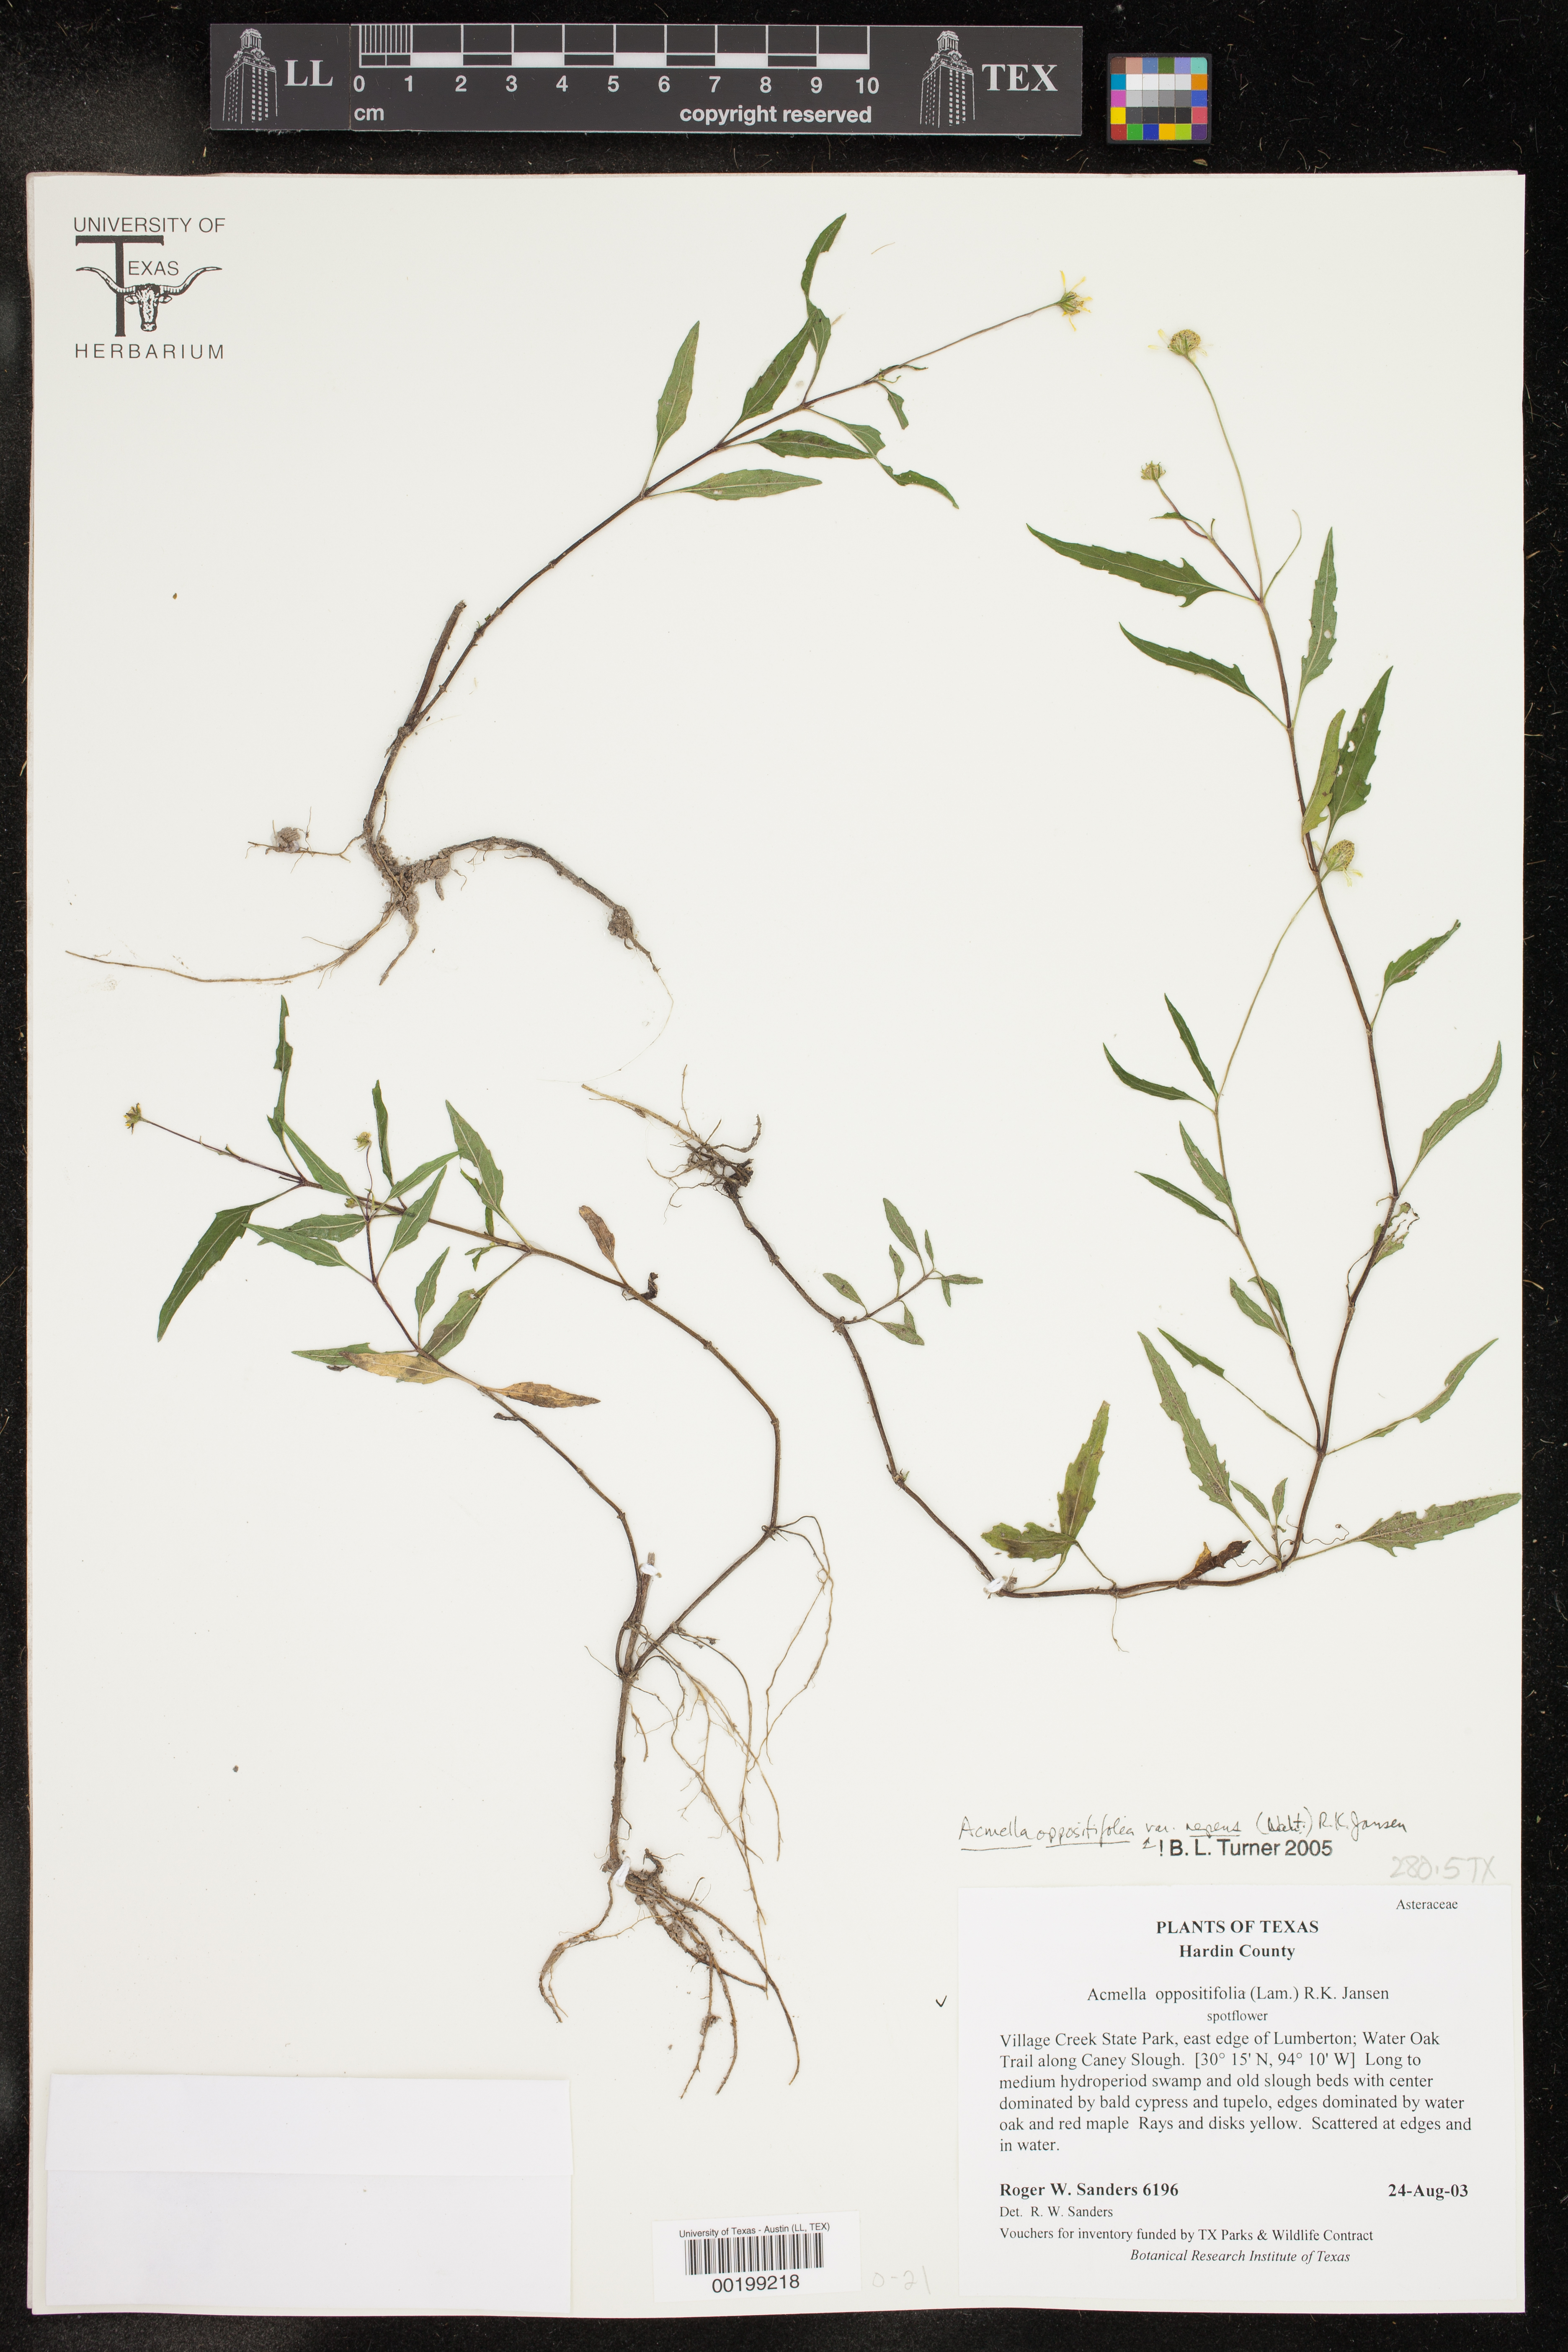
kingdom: Plantae
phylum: Tracheophyta
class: Magnoliopsida
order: Asterales
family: Asteraceae
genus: Acmella
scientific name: Acmella repens
